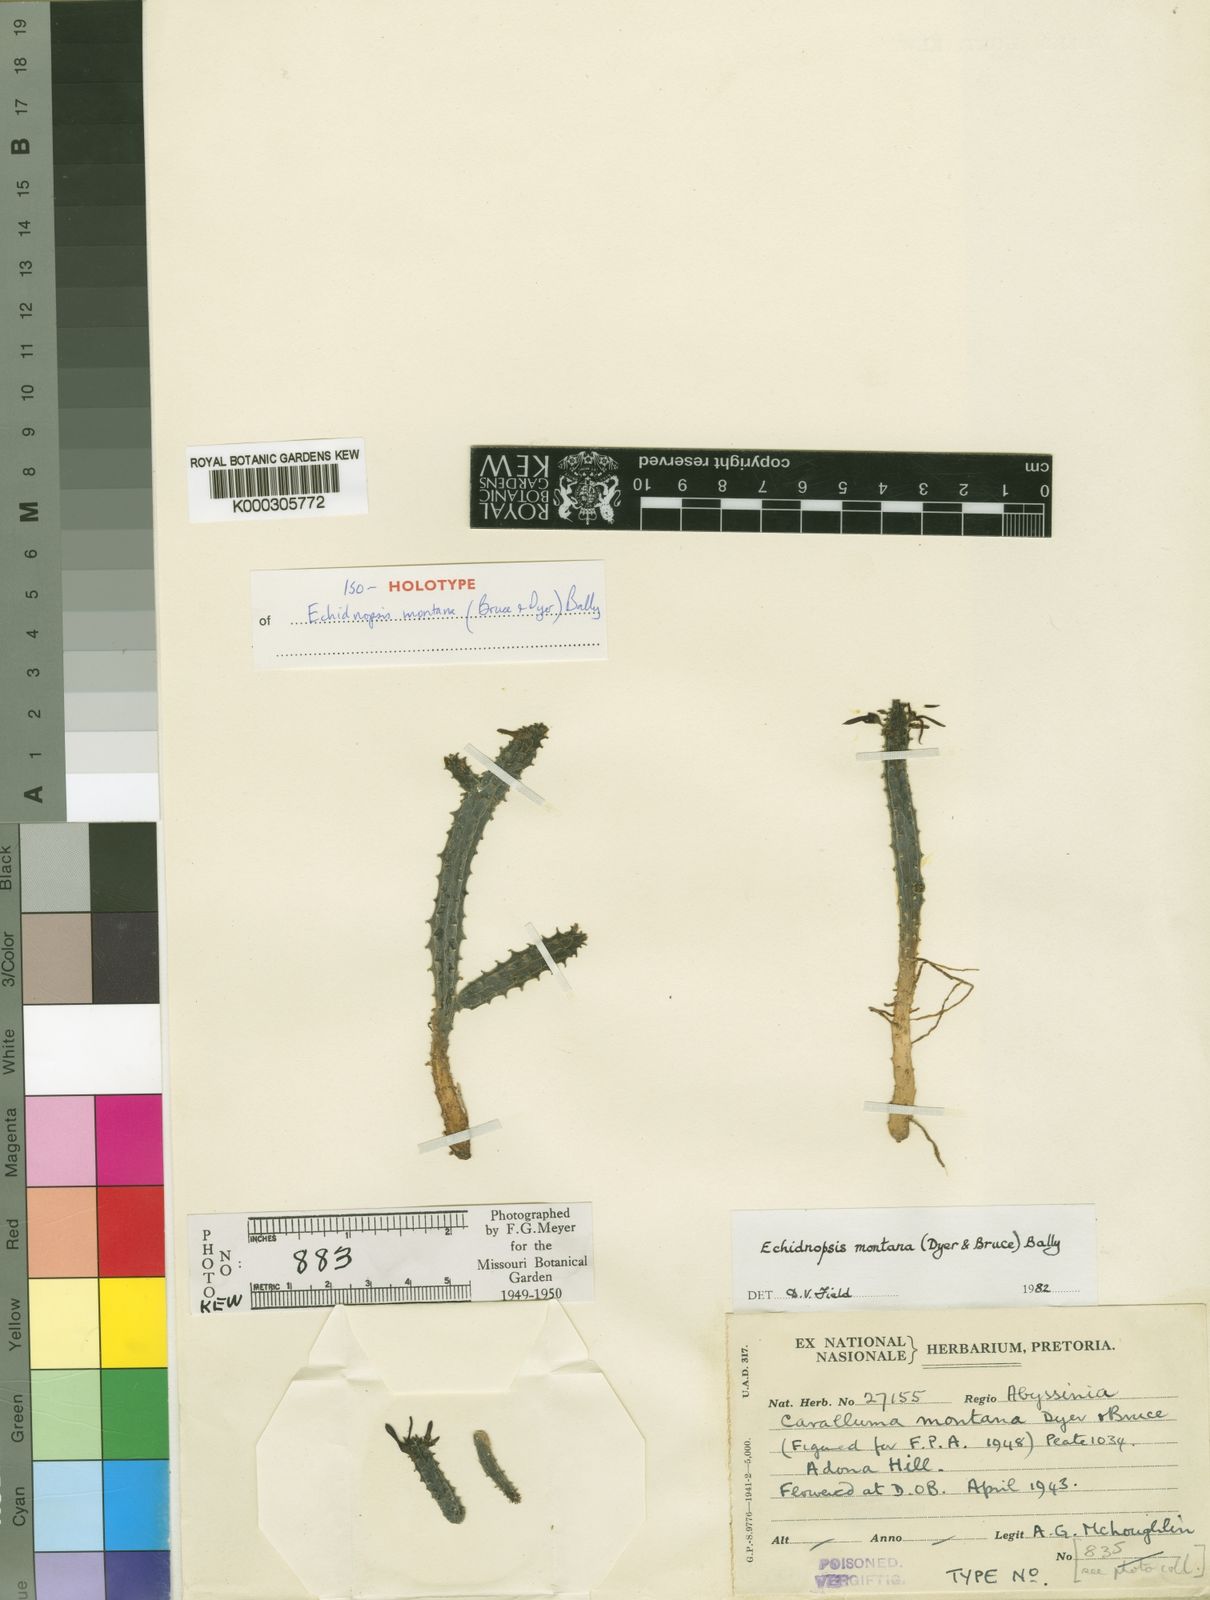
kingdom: Plantae
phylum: Tracheophyta
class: Magnoliopsida
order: Gentianales
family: Apocynaceae
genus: Ceropegia
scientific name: Ceropegia montana
